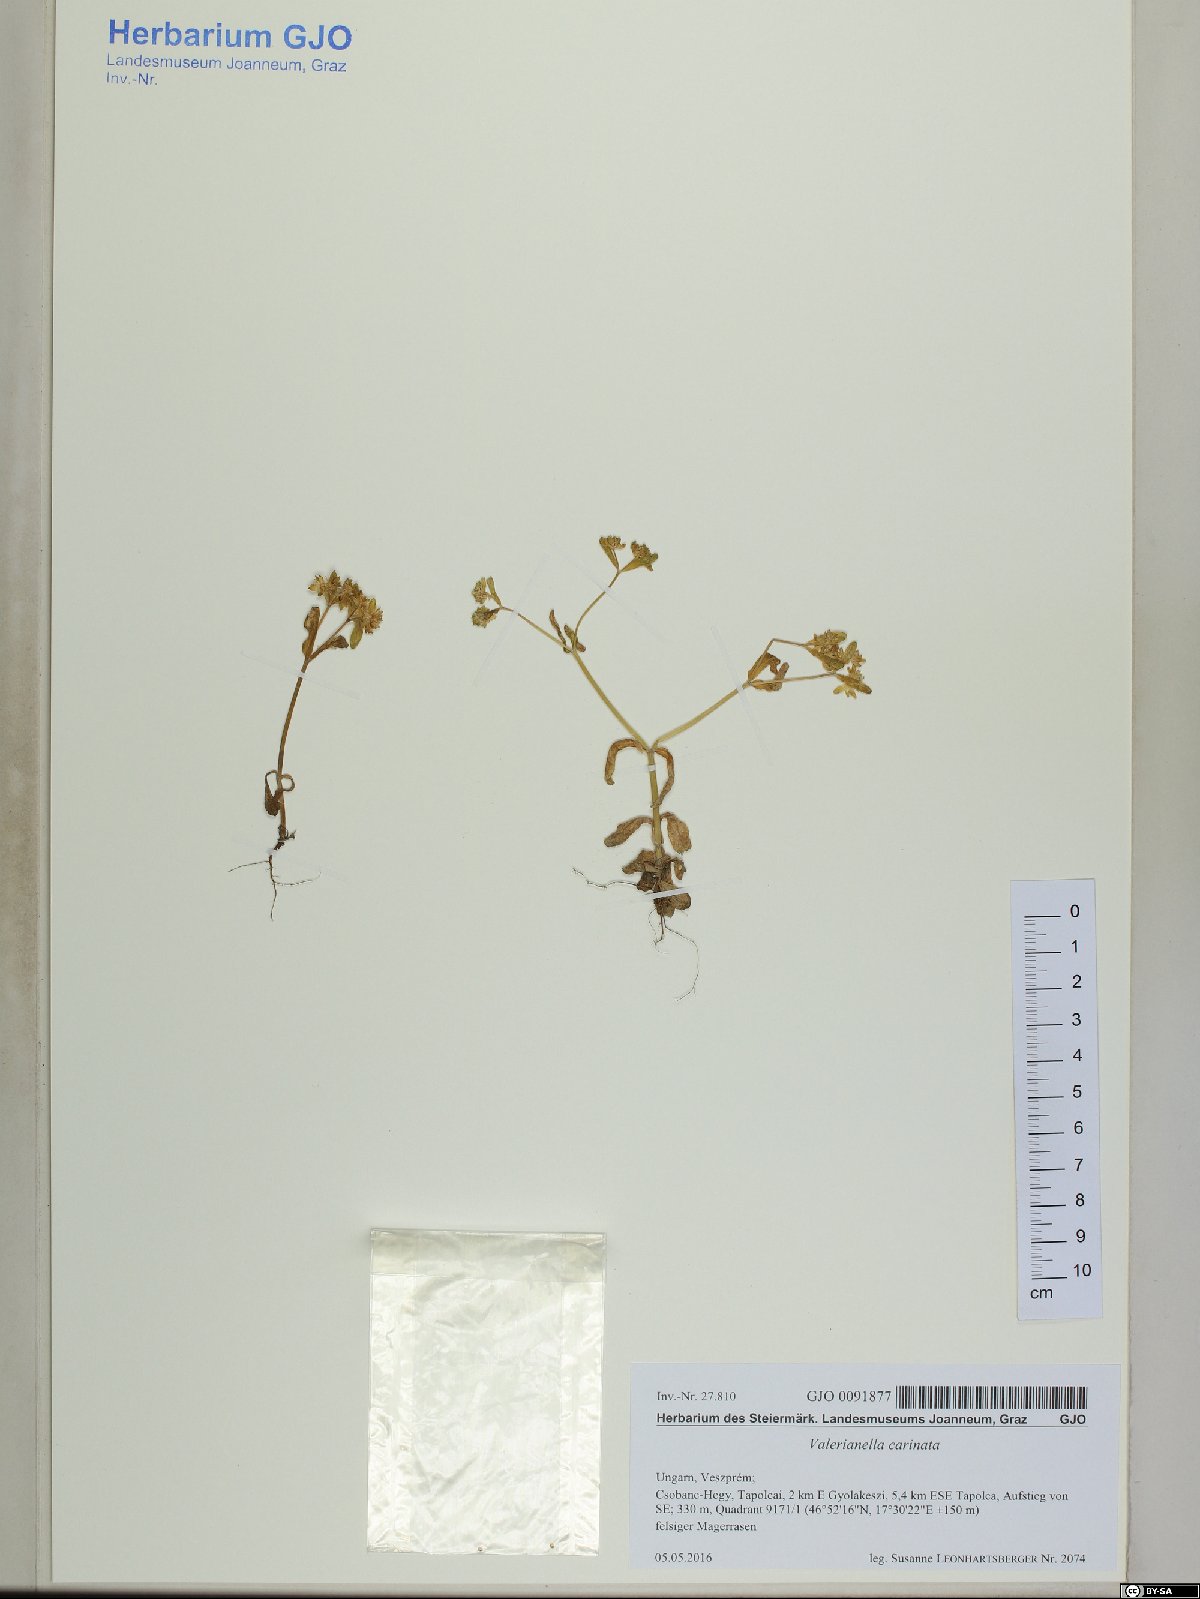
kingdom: Plantae
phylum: Tracheophyta
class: Magnoliopsida
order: Dipsacales
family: Caprifoliaceae
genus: Valerianella
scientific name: Valerianella carinata
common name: Keeled-fruited cornsalad
